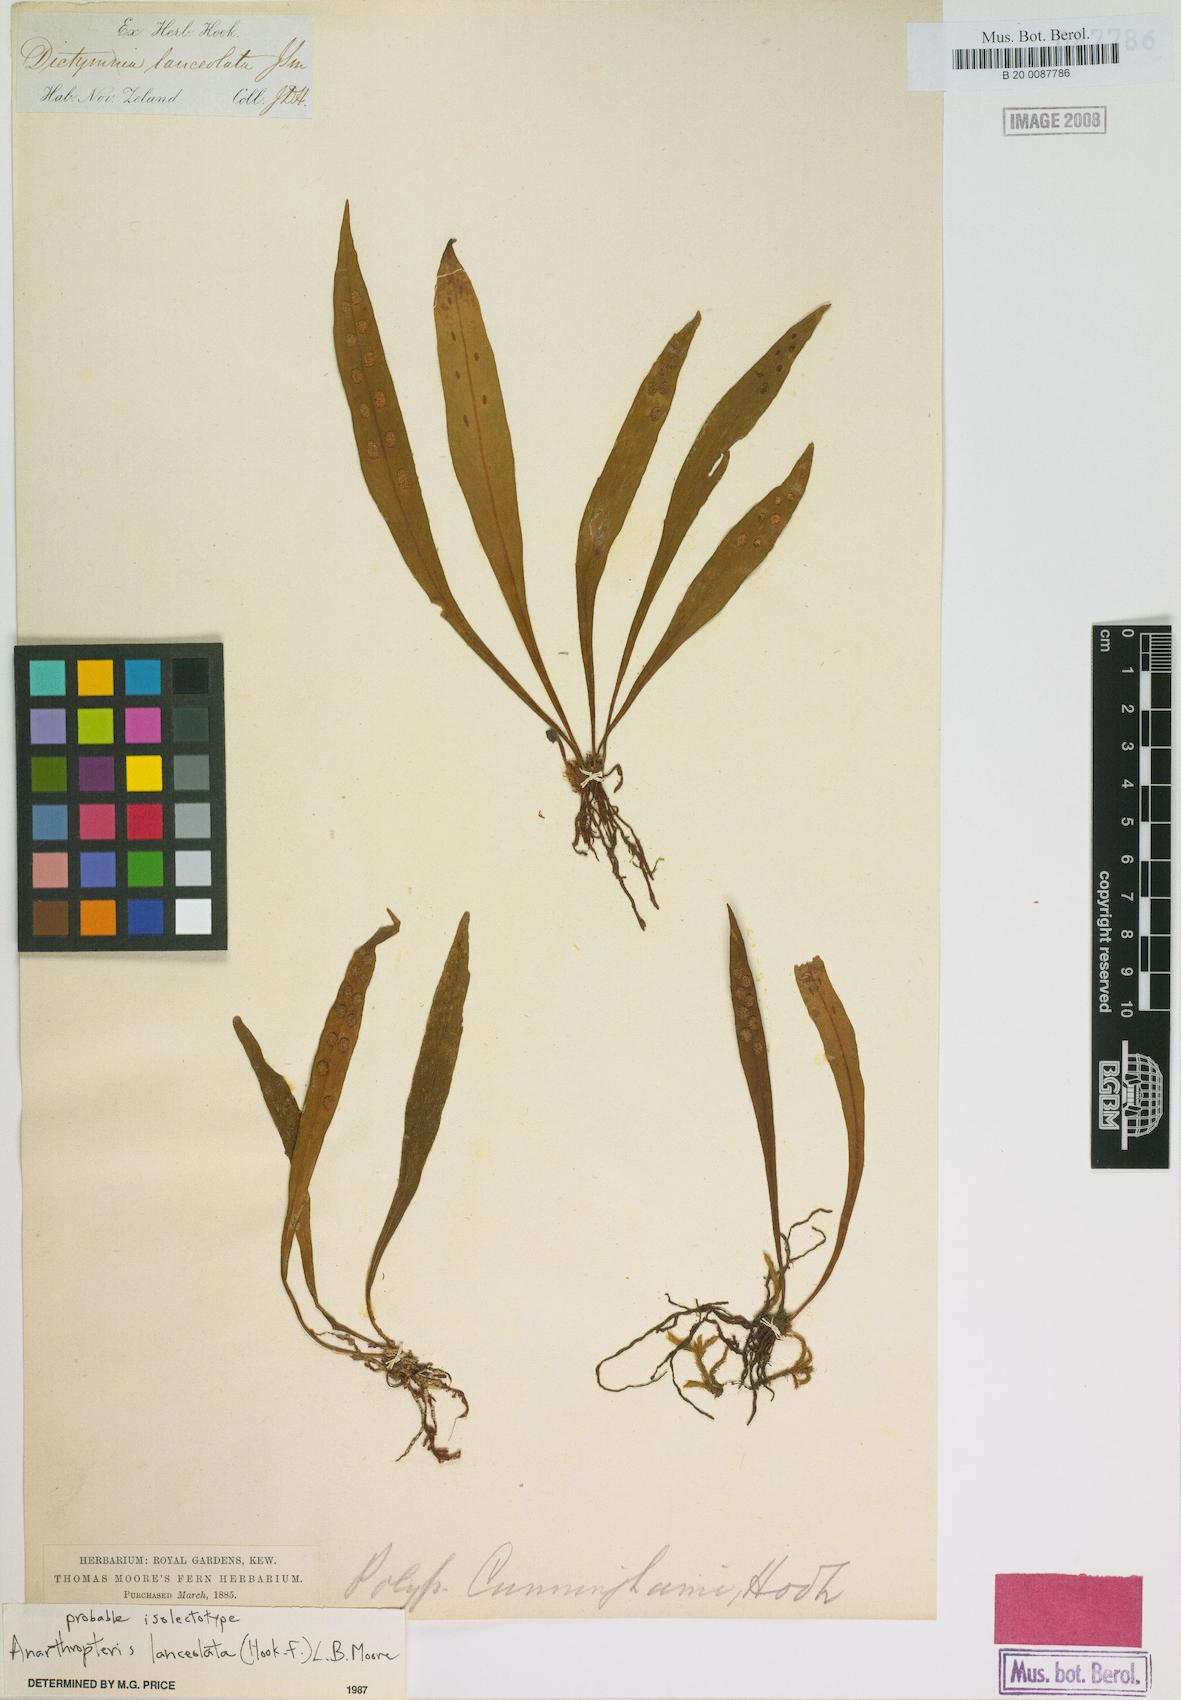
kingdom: Plantae
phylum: Tracheophyta
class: Polypodiopsida
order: Polypodiales
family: Polypodiaceae
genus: Loxogramme
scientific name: Loxogramme dictyopteris
